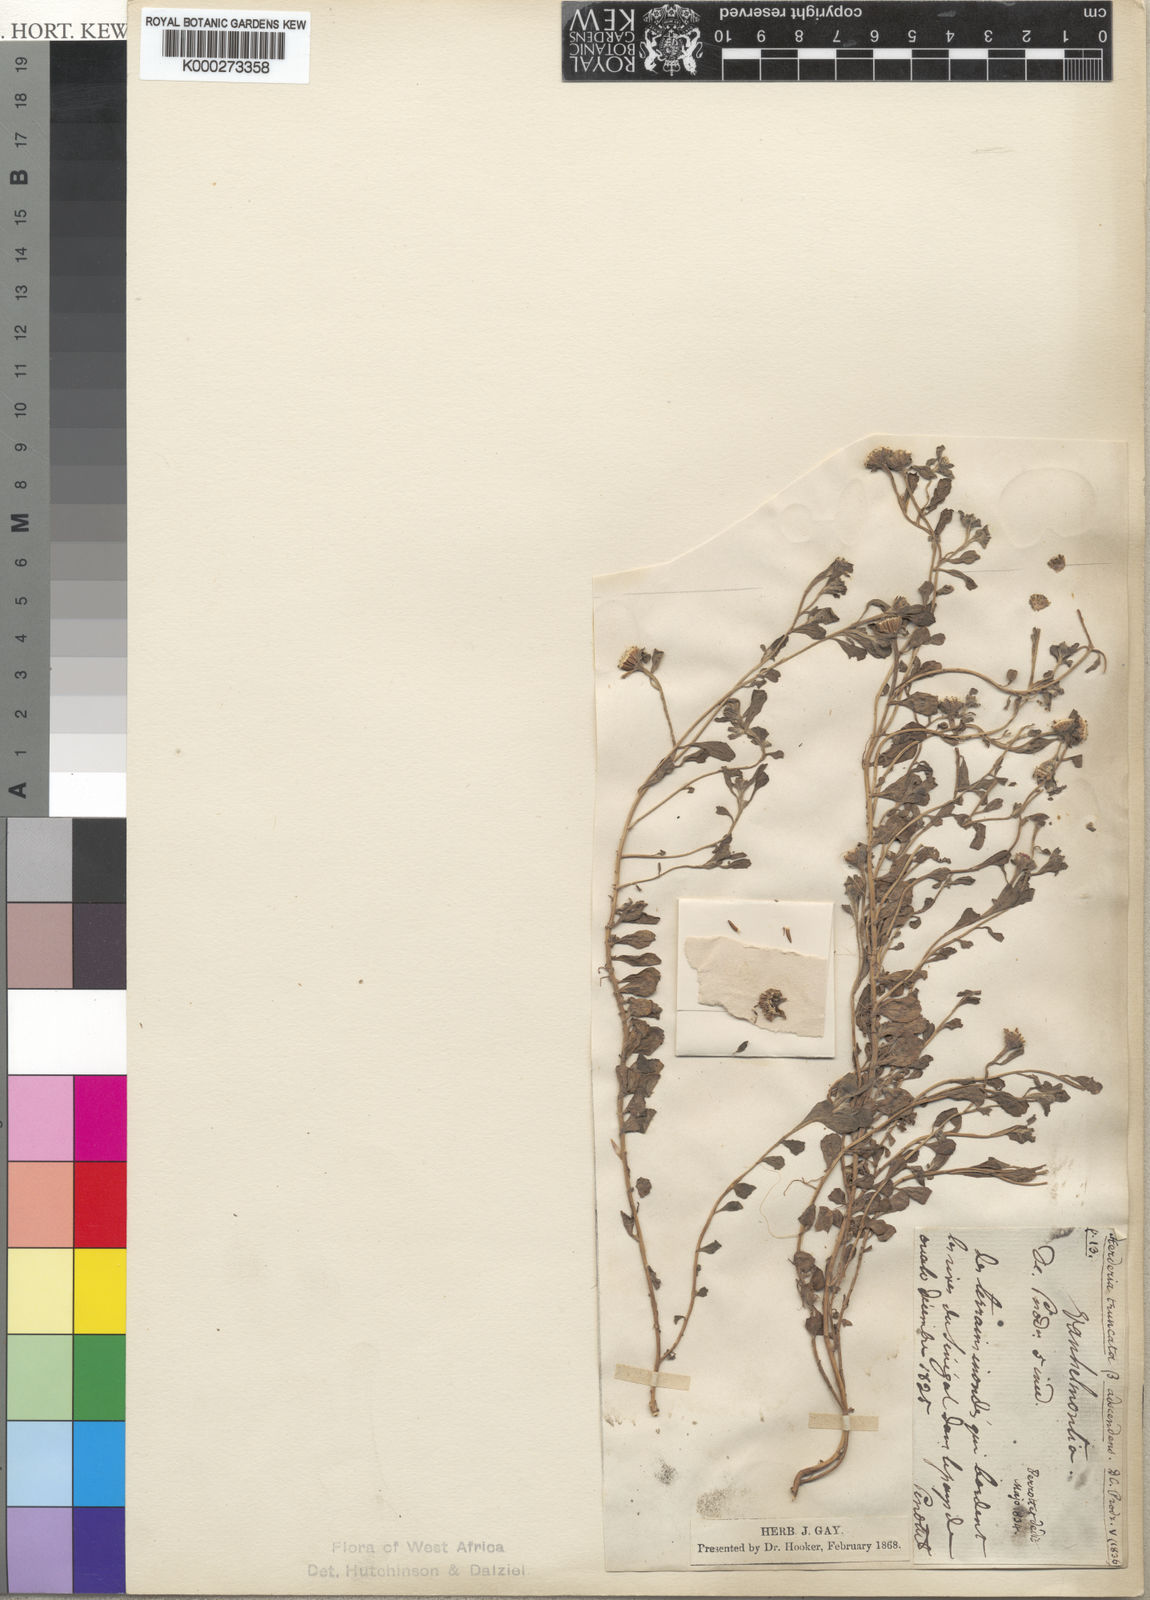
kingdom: Plantae
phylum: Tracheophyta
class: Magnoliopsida
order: Asterales
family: Asteraceae
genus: Herderia
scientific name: Herderia truncata
